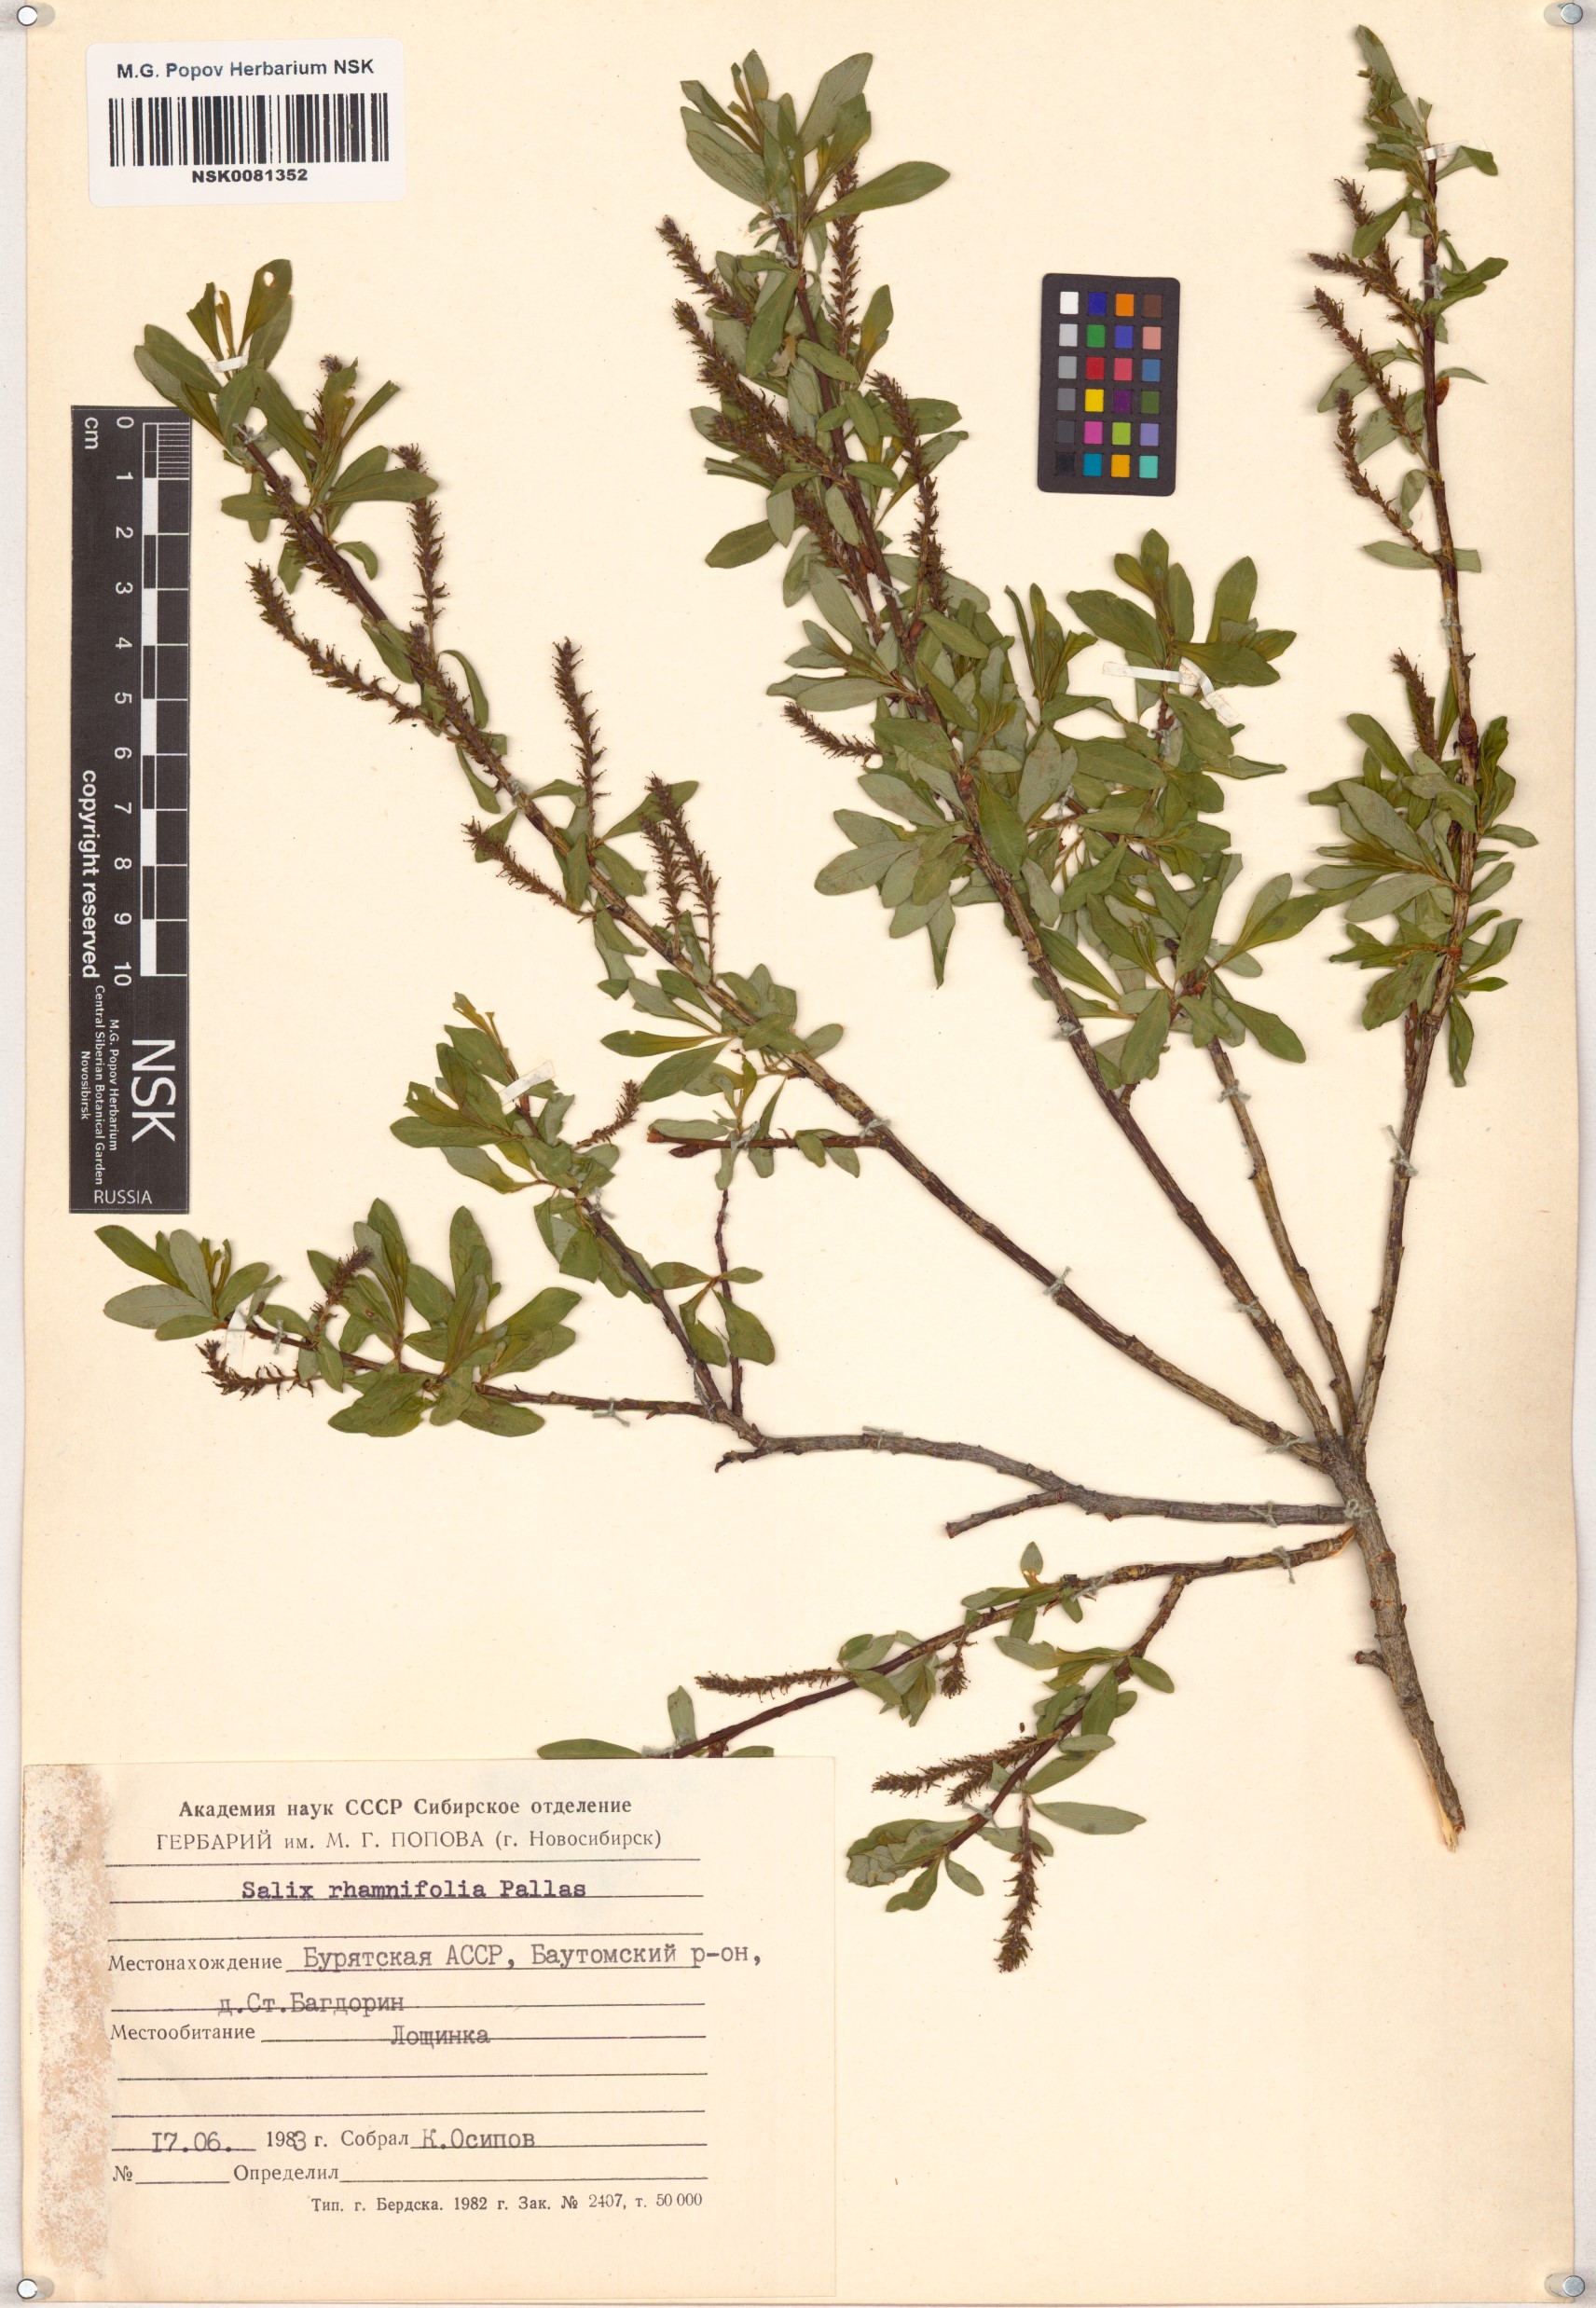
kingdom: Plantae
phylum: Tracheophyta
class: Magnoliopsida
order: Malpighiales
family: Salicaceae
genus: Salix
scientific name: Salix rhamnifolia
